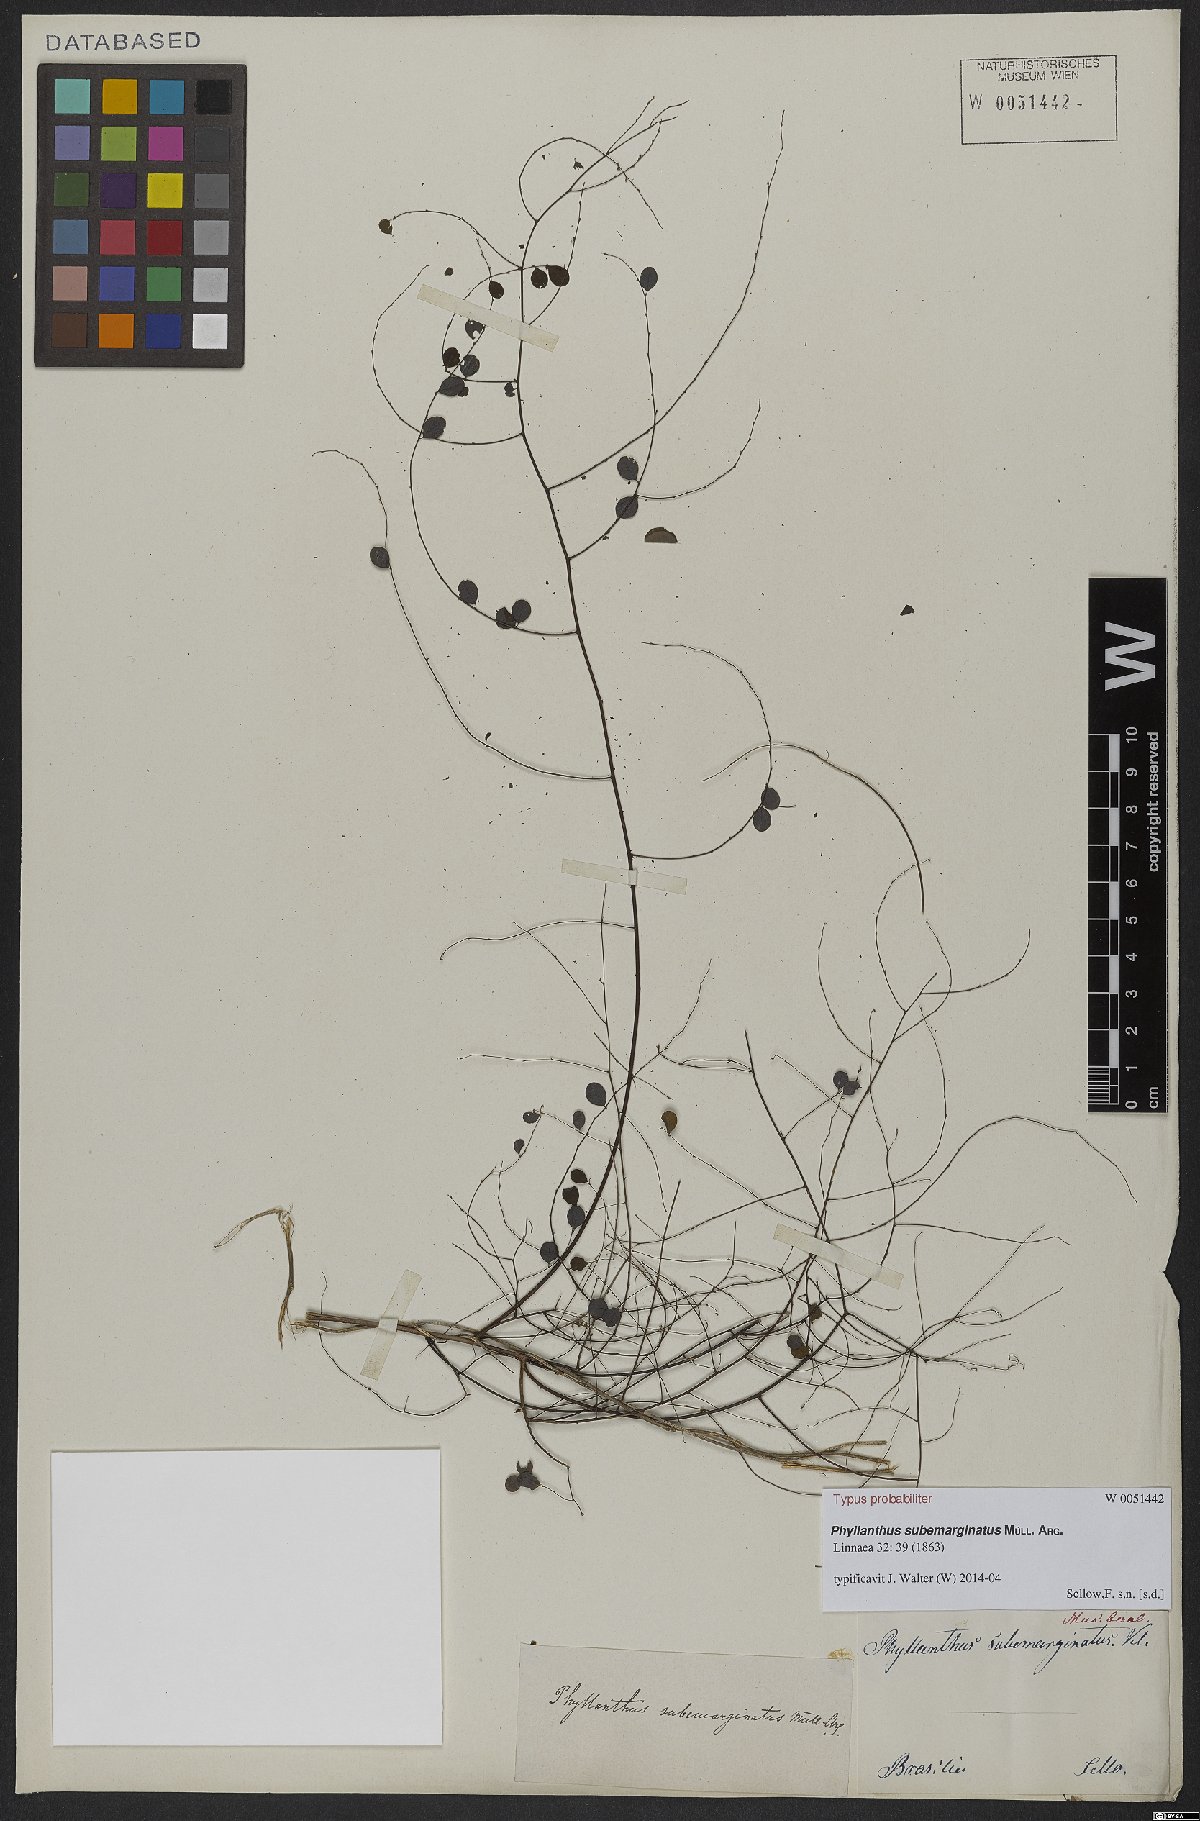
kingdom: Plantae
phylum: Tracheophyta
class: Magnoliopsida
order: Malpighiales
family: Phyllanthaceae
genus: Phyllanthus
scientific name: Phyllanthus subemarginatus
